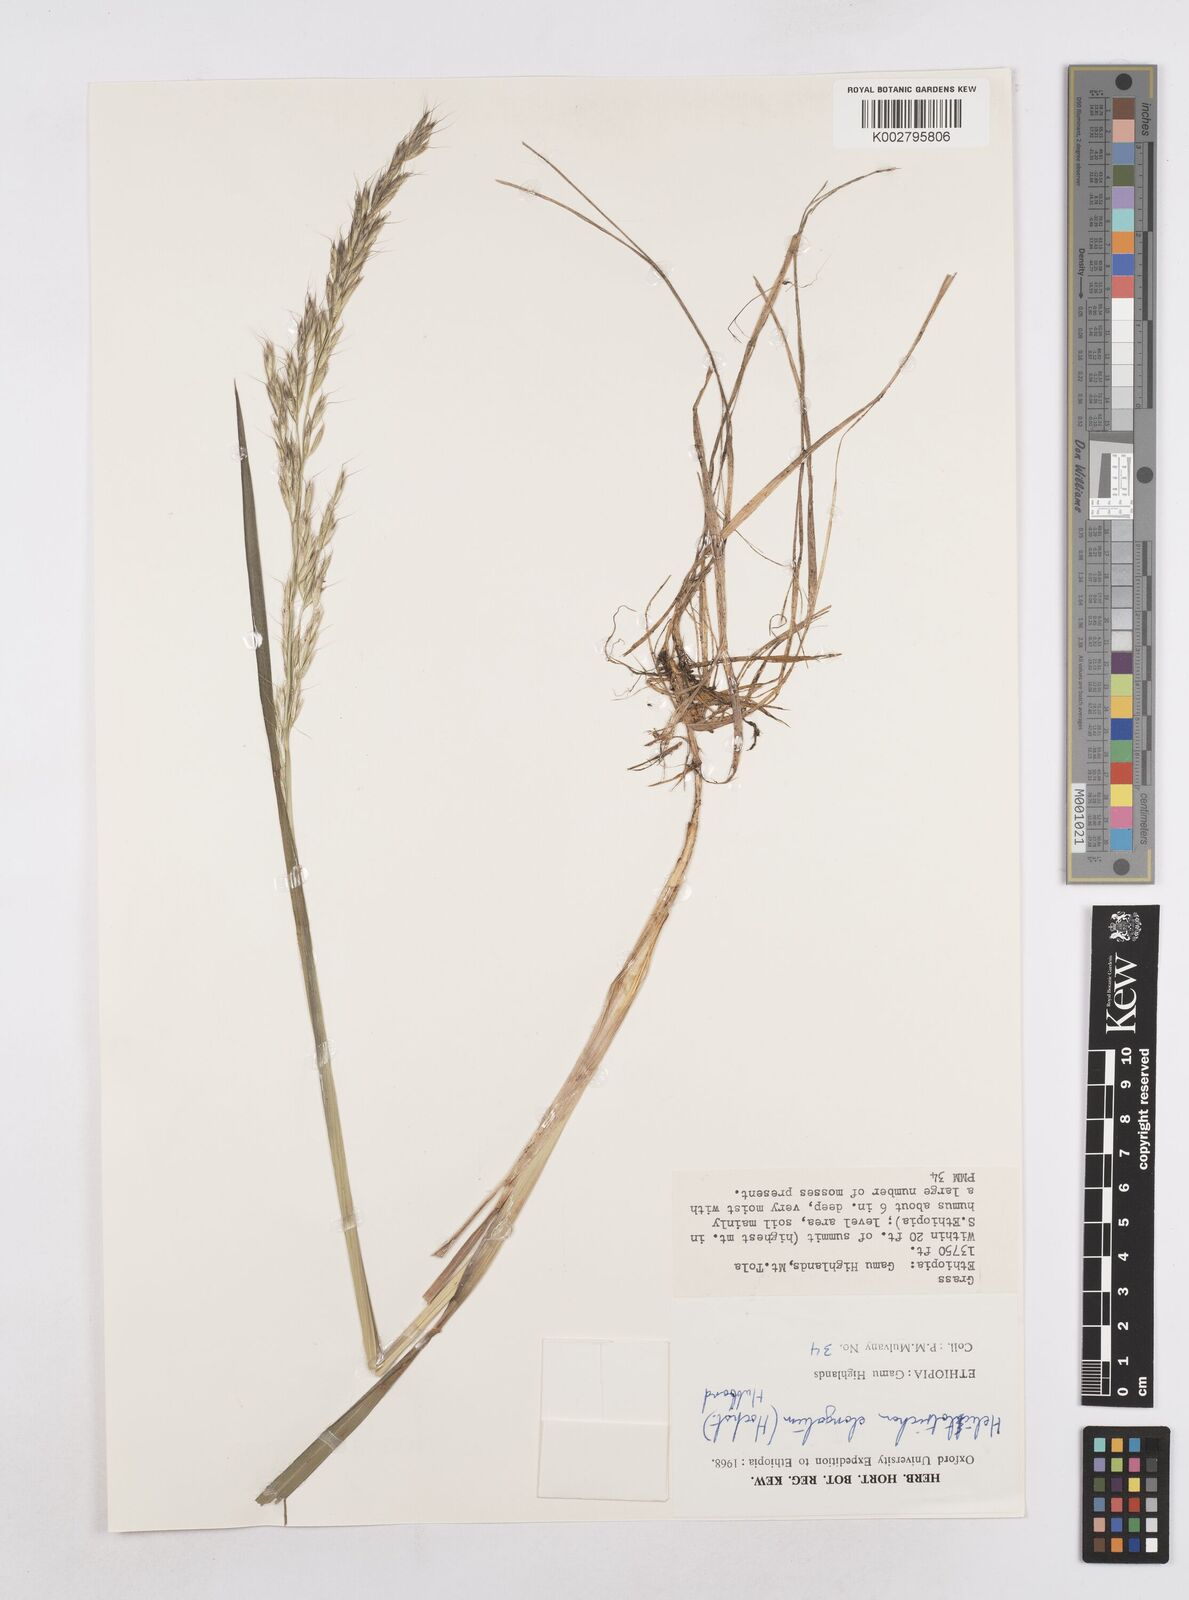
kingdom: Plantae
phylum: Tracheophyta
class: Liliopsida
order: Poales
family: Poaceae
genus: Trisetopsis
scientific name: Trisetopsis elongata
